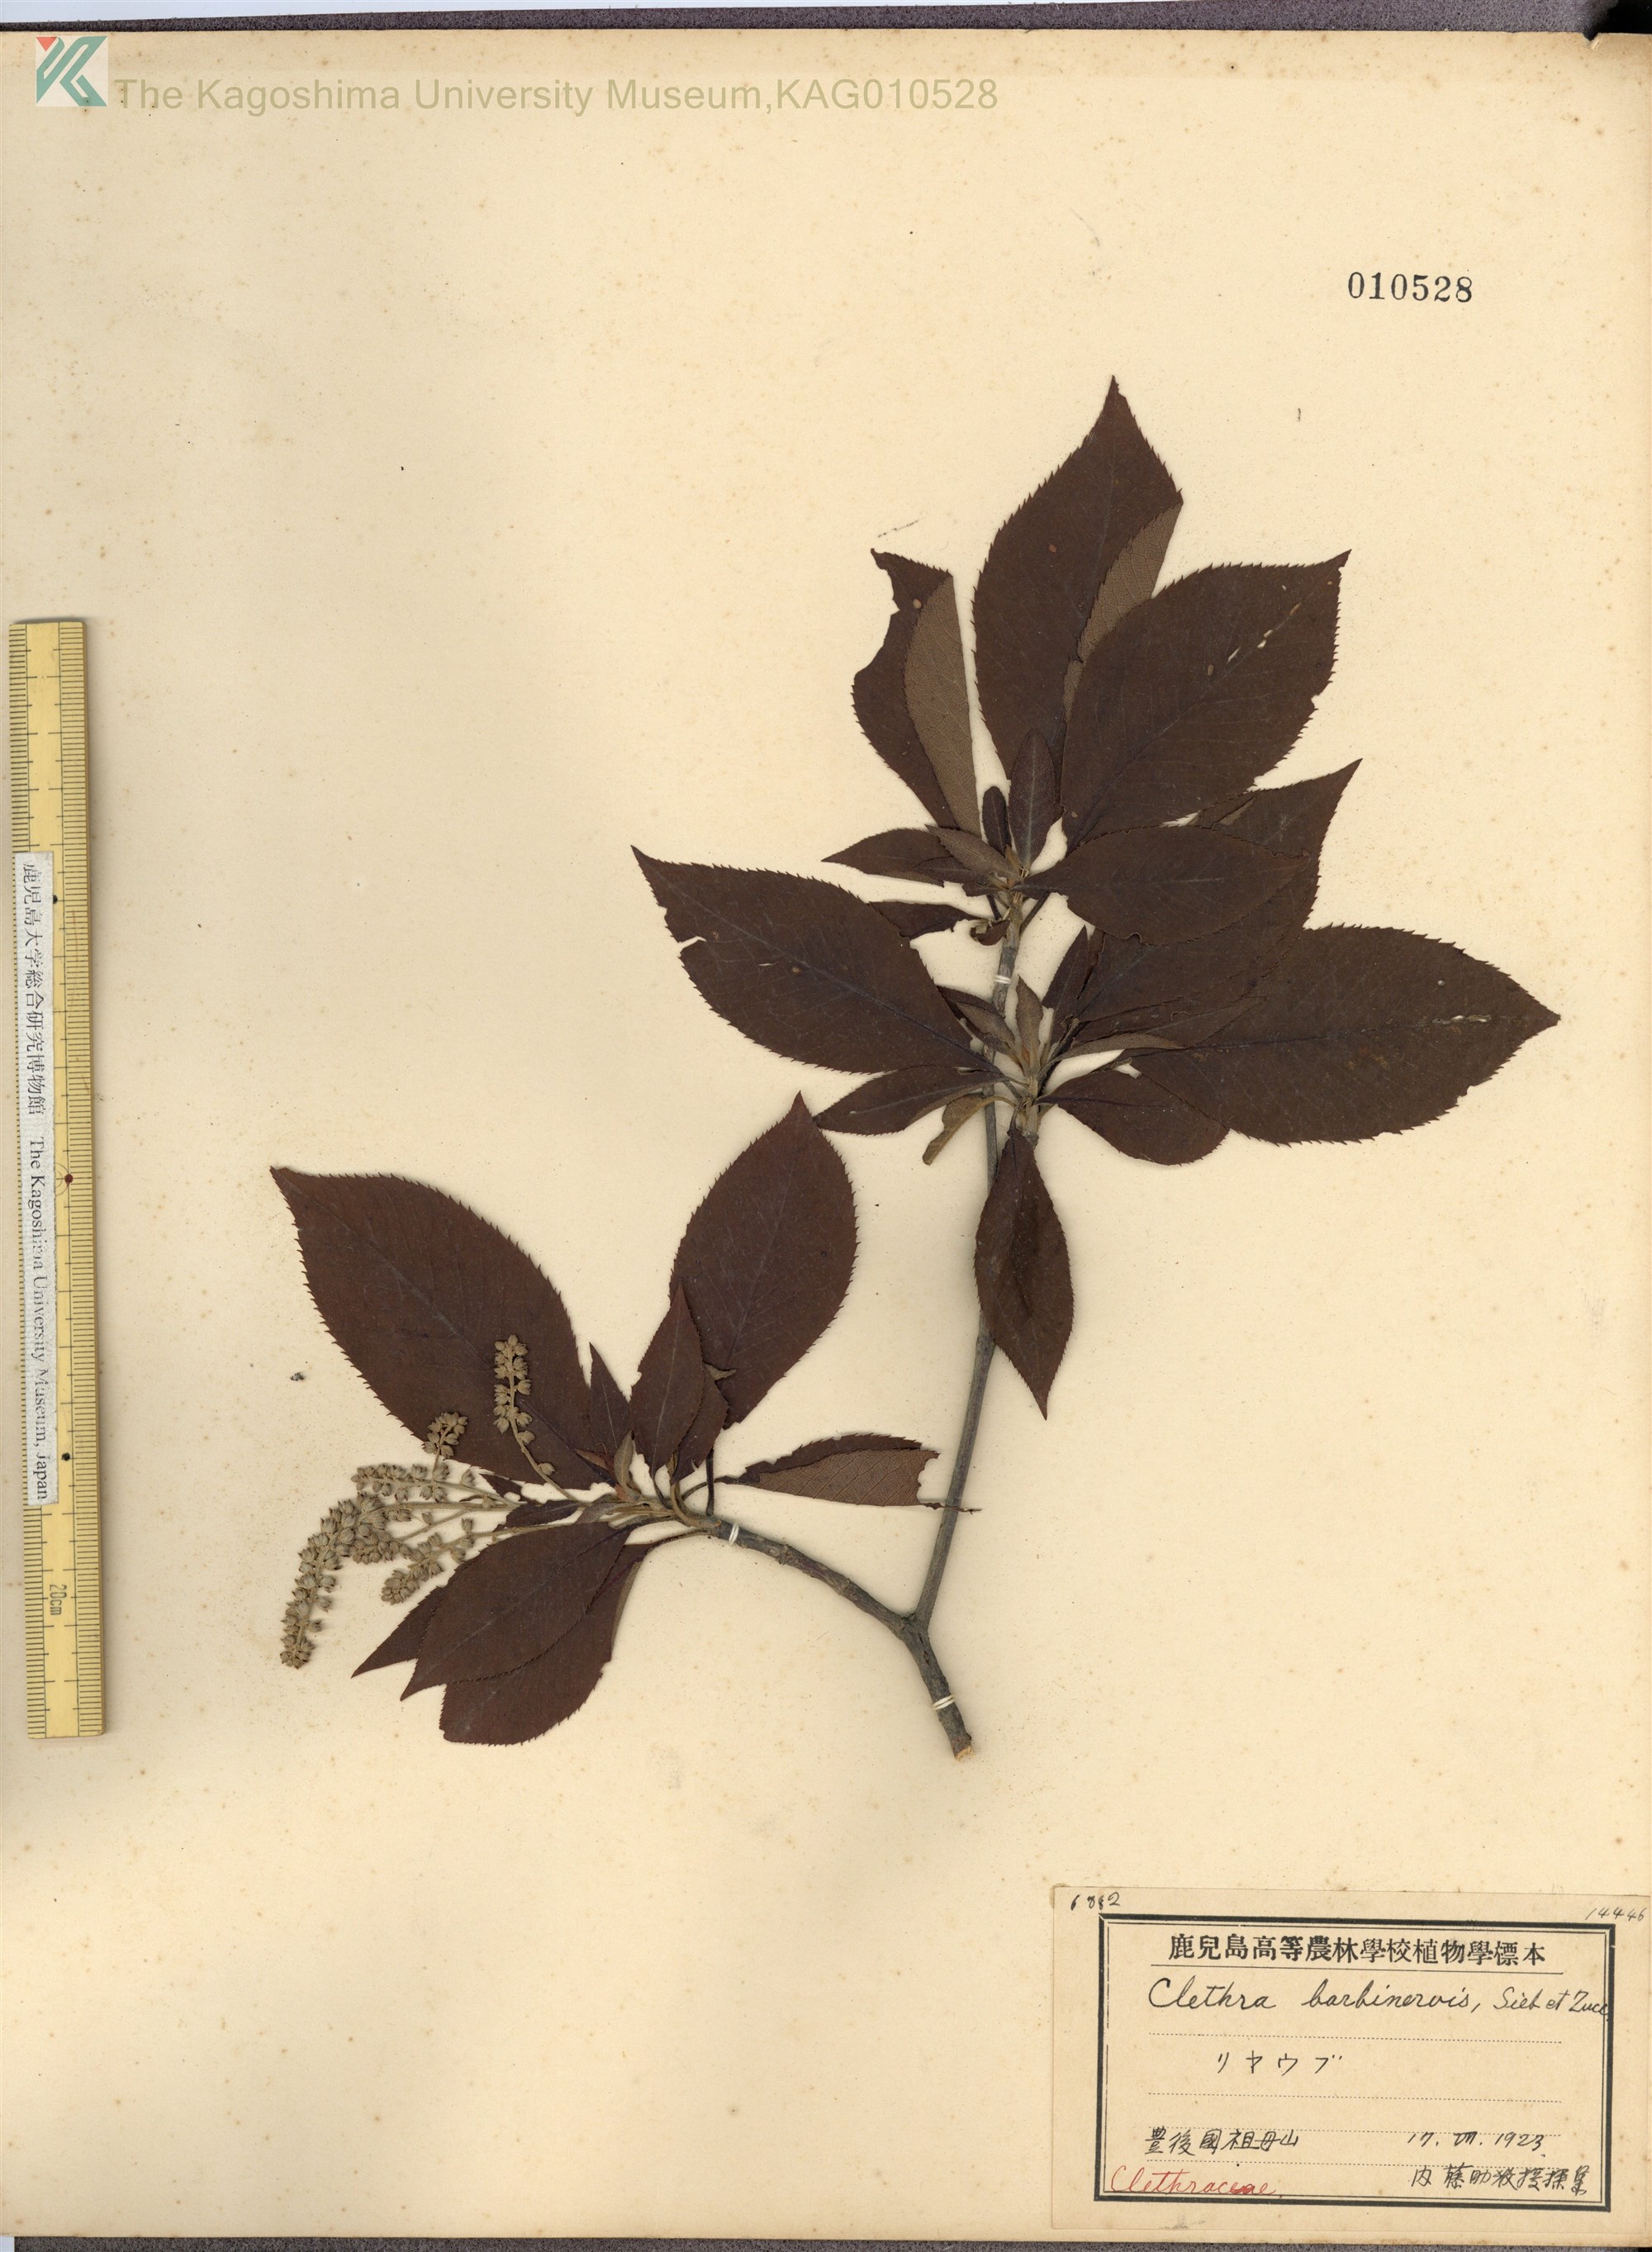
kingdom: Plantae
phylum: Tracheophyta
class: Magnoliopsida
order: Ericales
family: Clethraceae
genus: Clethra
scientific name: Clethra barbinervis
